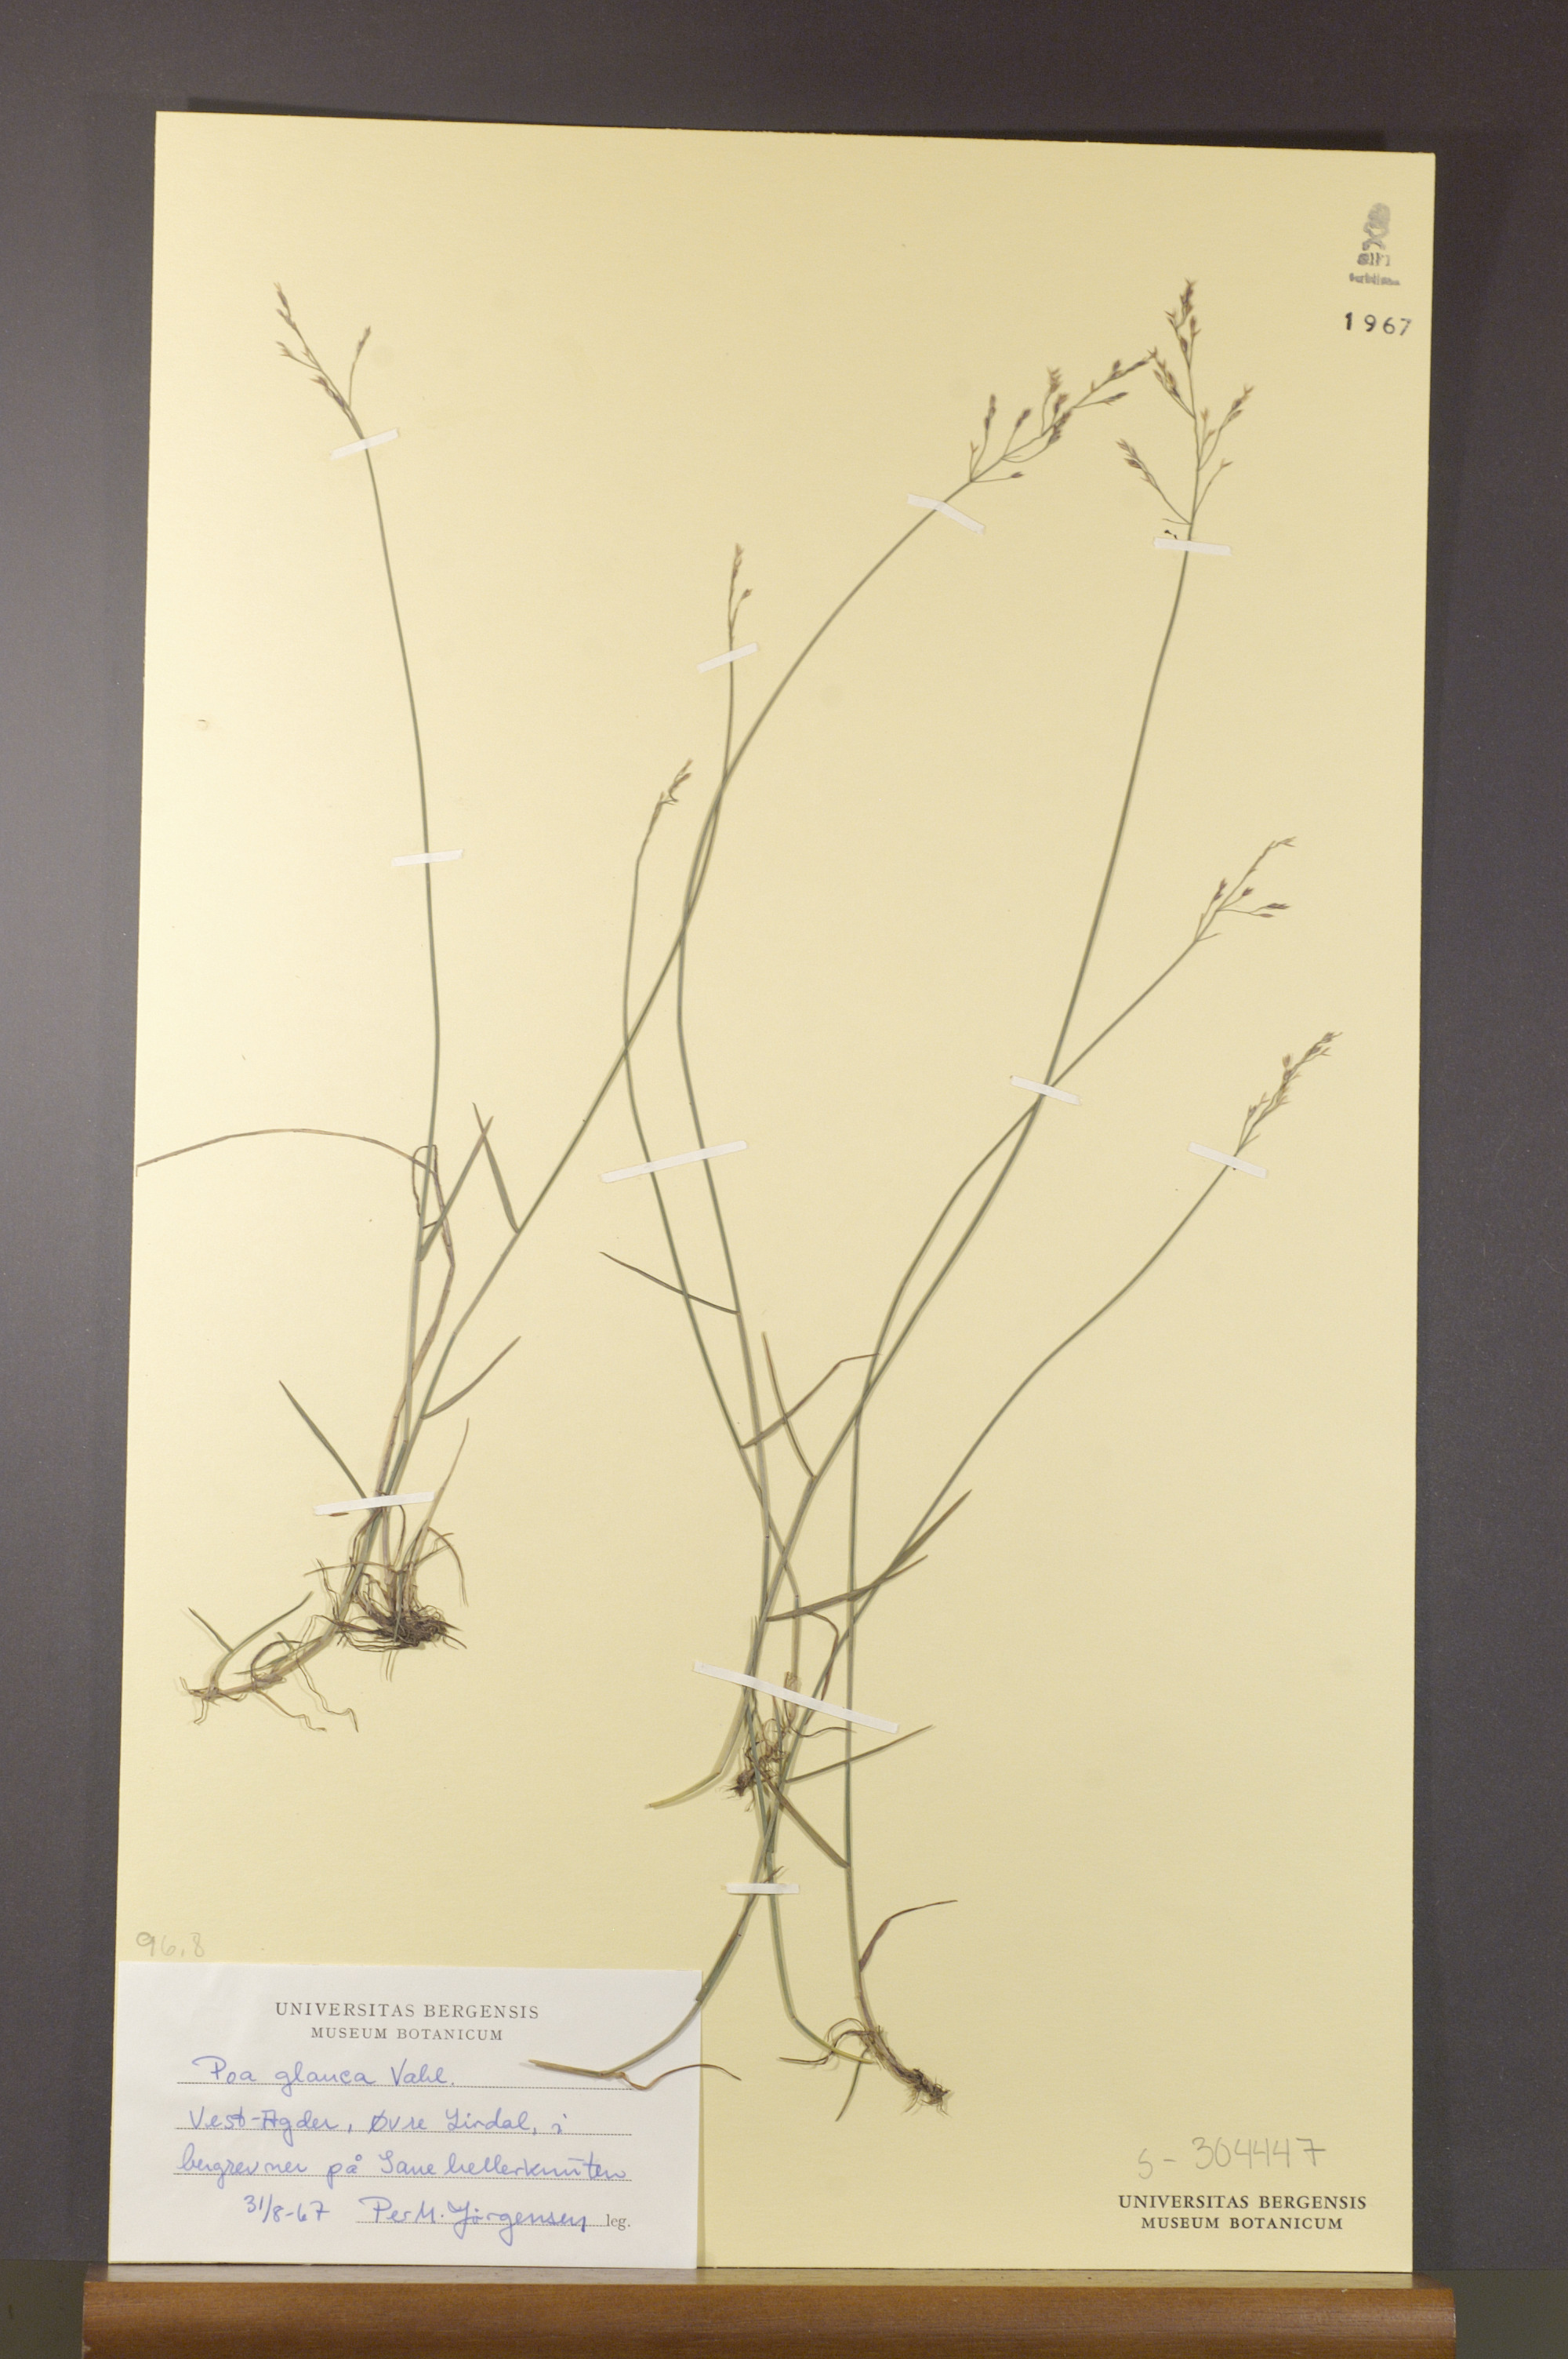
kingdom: Plantae
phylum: Tracheophyta
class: Liliopsida
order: Poales
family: Poaceae
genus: Poa
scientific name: Poa glauca
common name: Glaucous bluegrass
